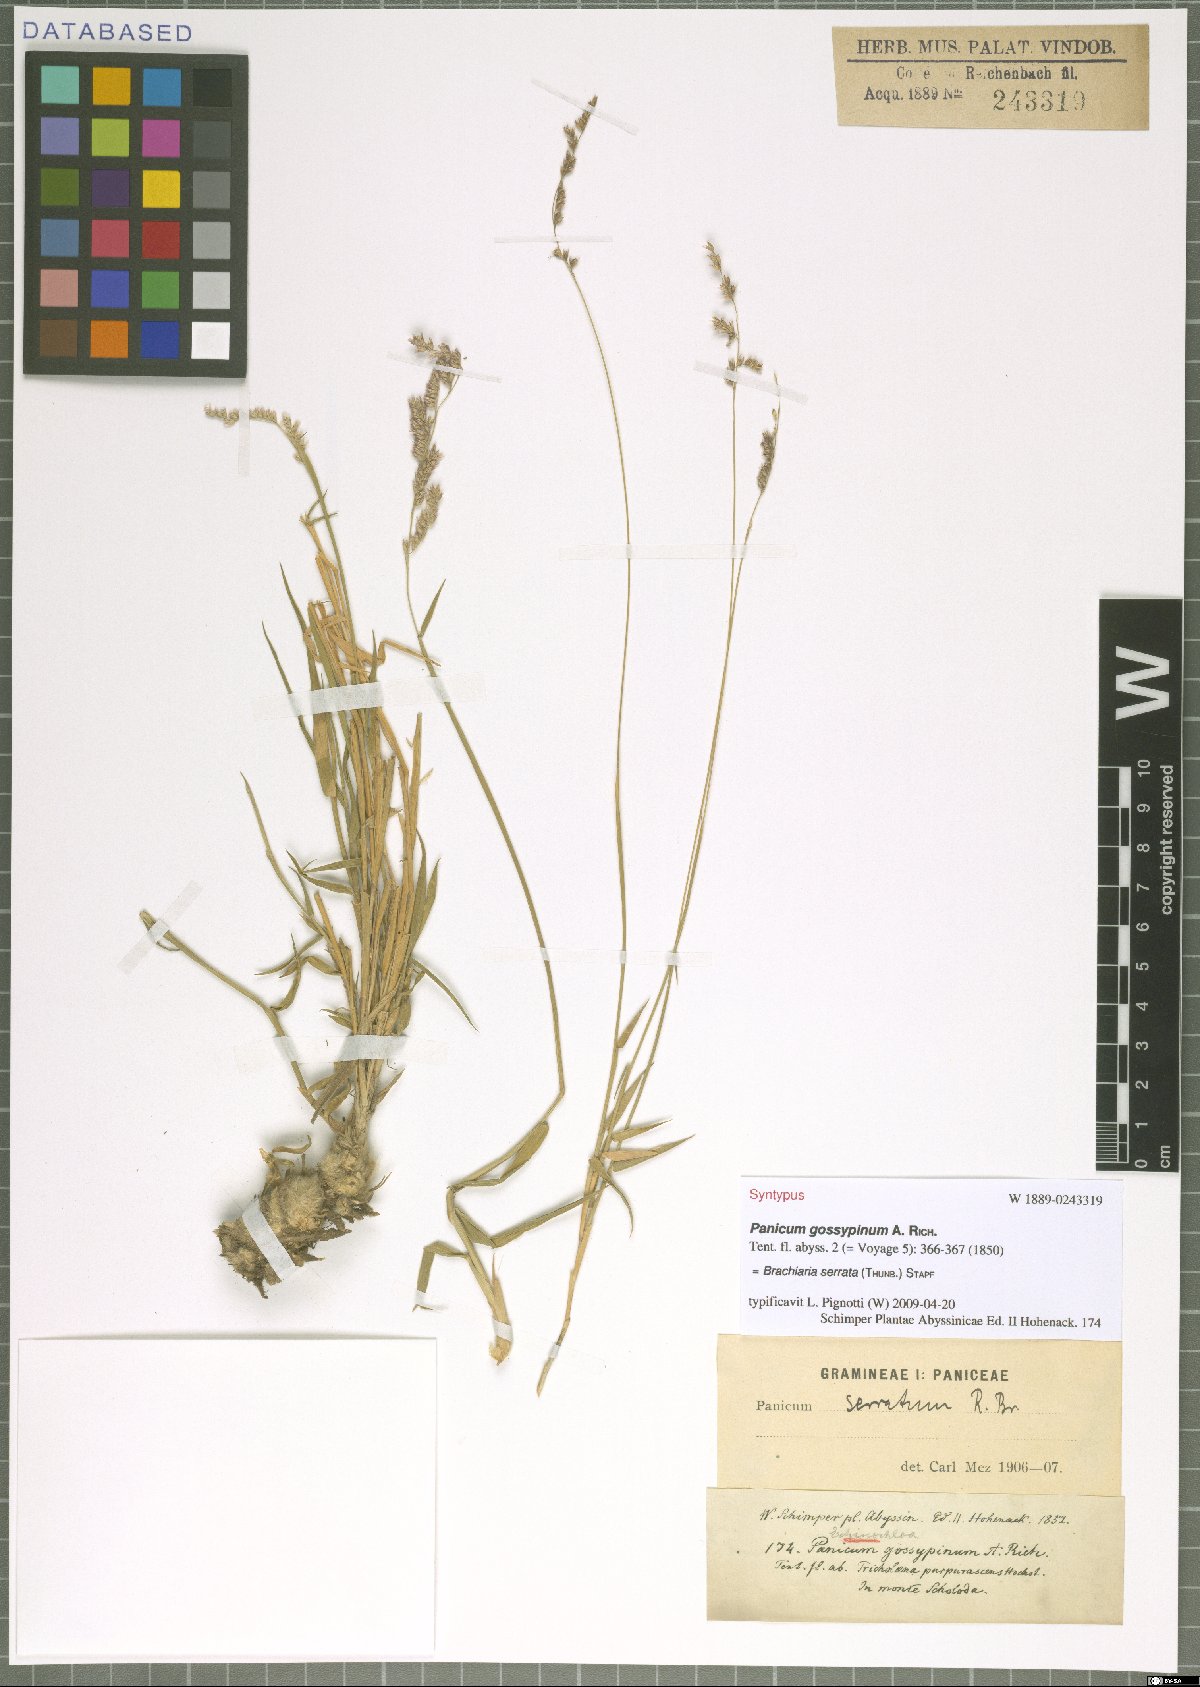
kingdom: Plantae
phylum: Tracheophyta
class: Liliopsida
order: Poales
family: Poaceae
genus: Urochloa
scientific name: Urochloa serrata
